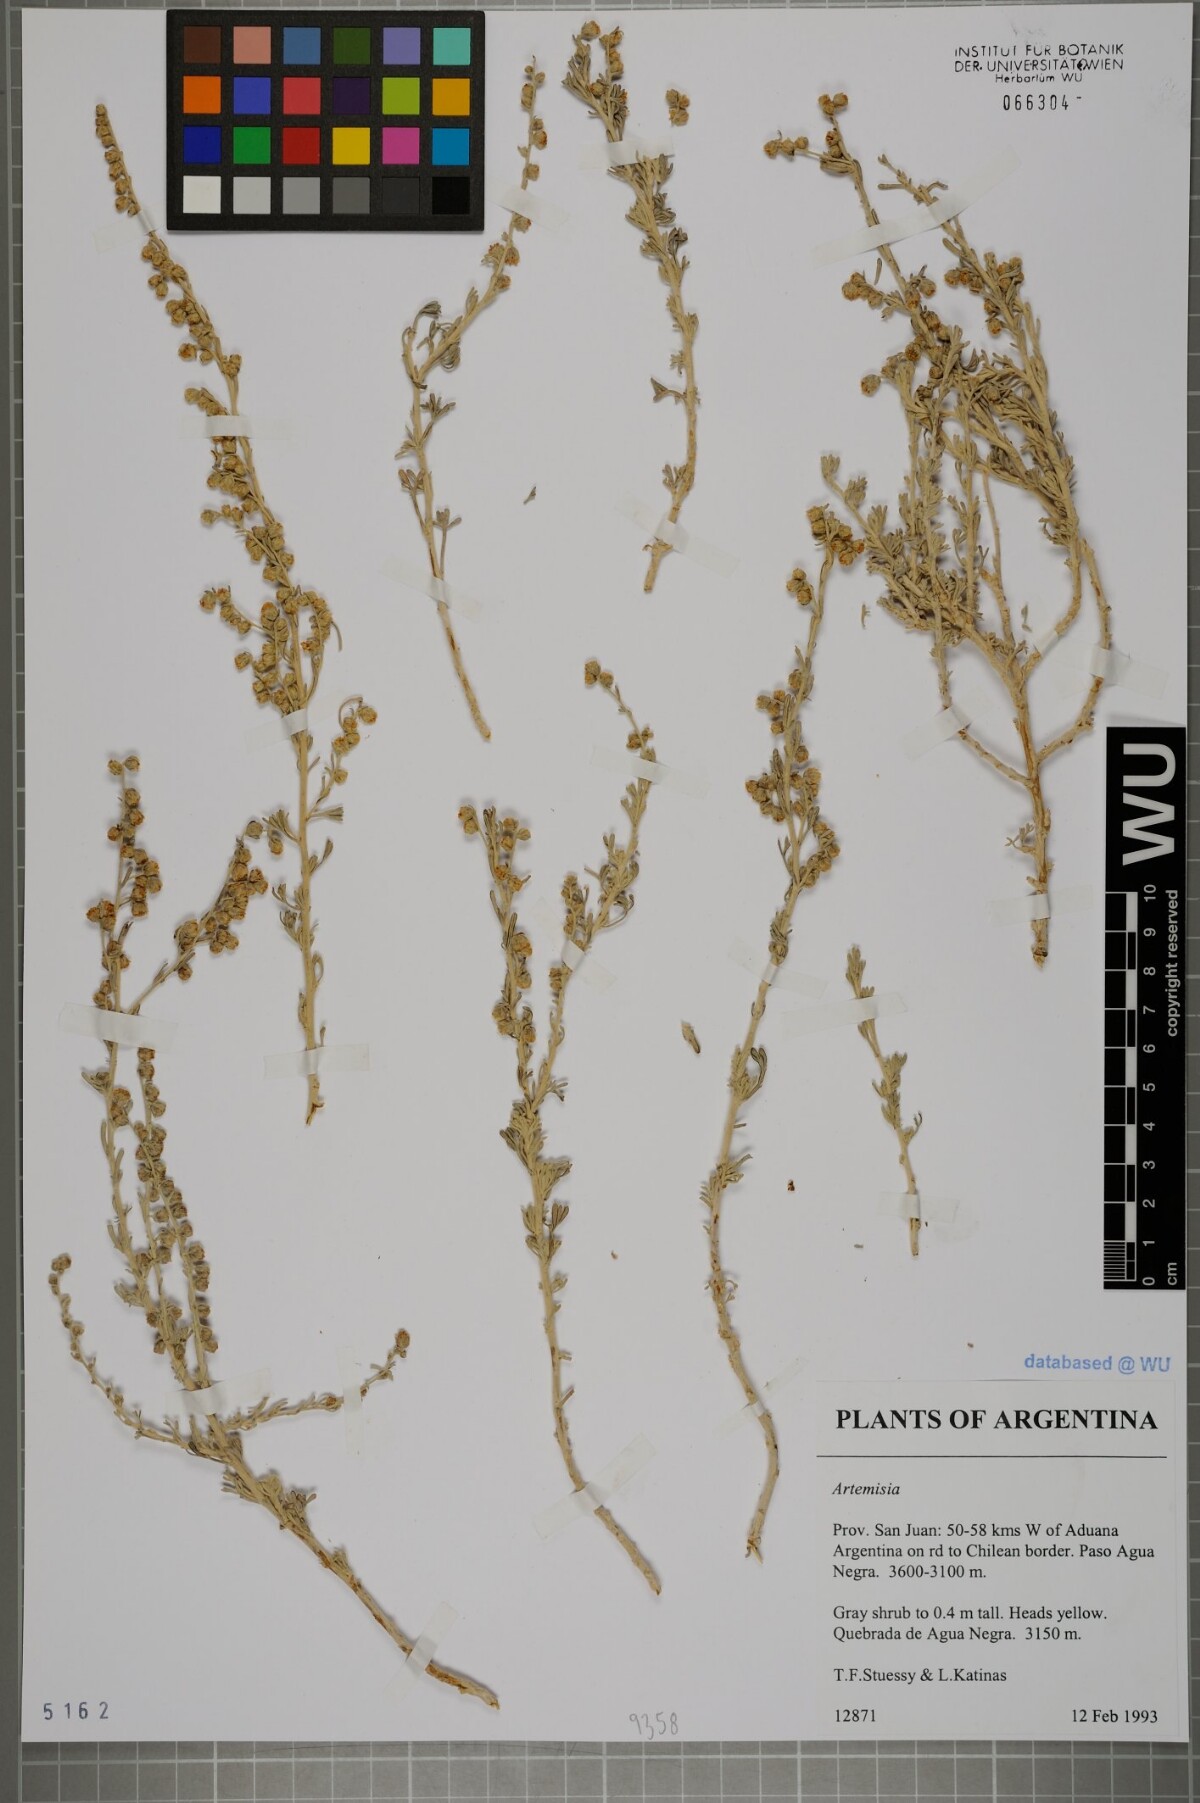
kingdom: Plantae
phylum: Tracheophyta
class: Magnoliopsida
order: Asterales
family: Asteraceae
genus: Artemisia
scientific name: Artemisia
